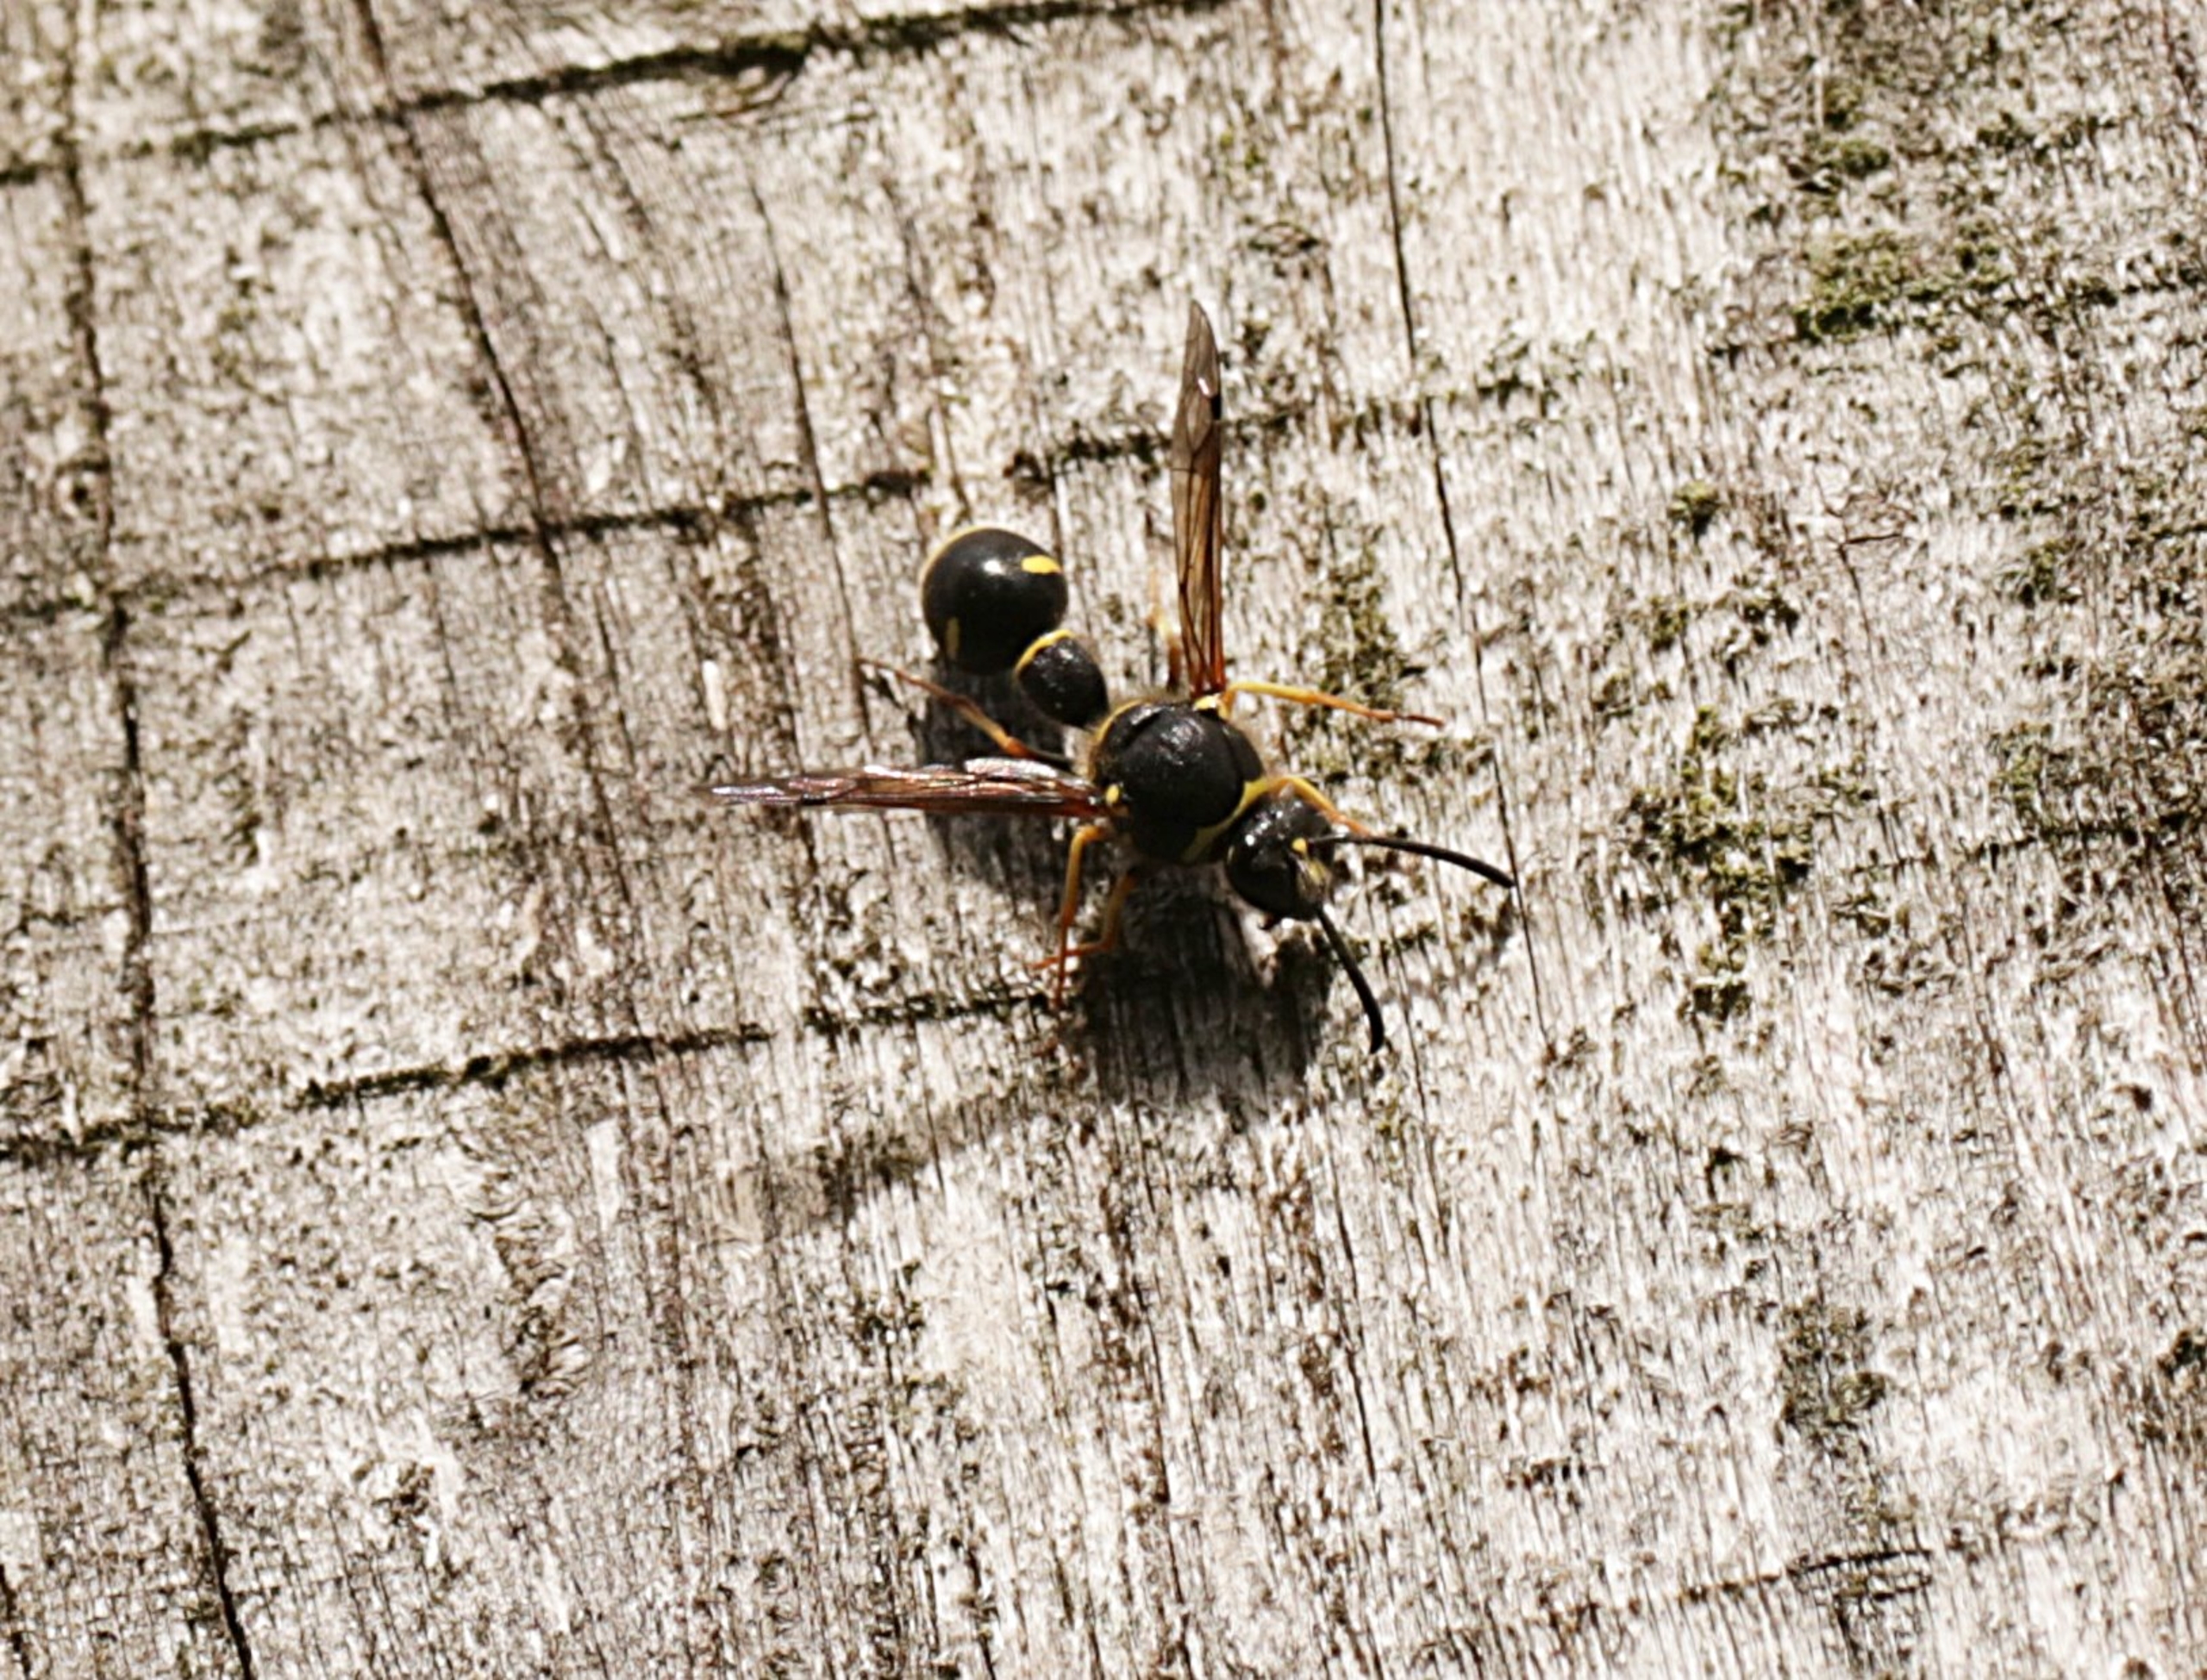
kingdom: Animalia
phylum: Arthropoda
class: Insecta
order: Hymenoptera
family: Vespidae
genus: Eumenes
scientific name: Eumenes
